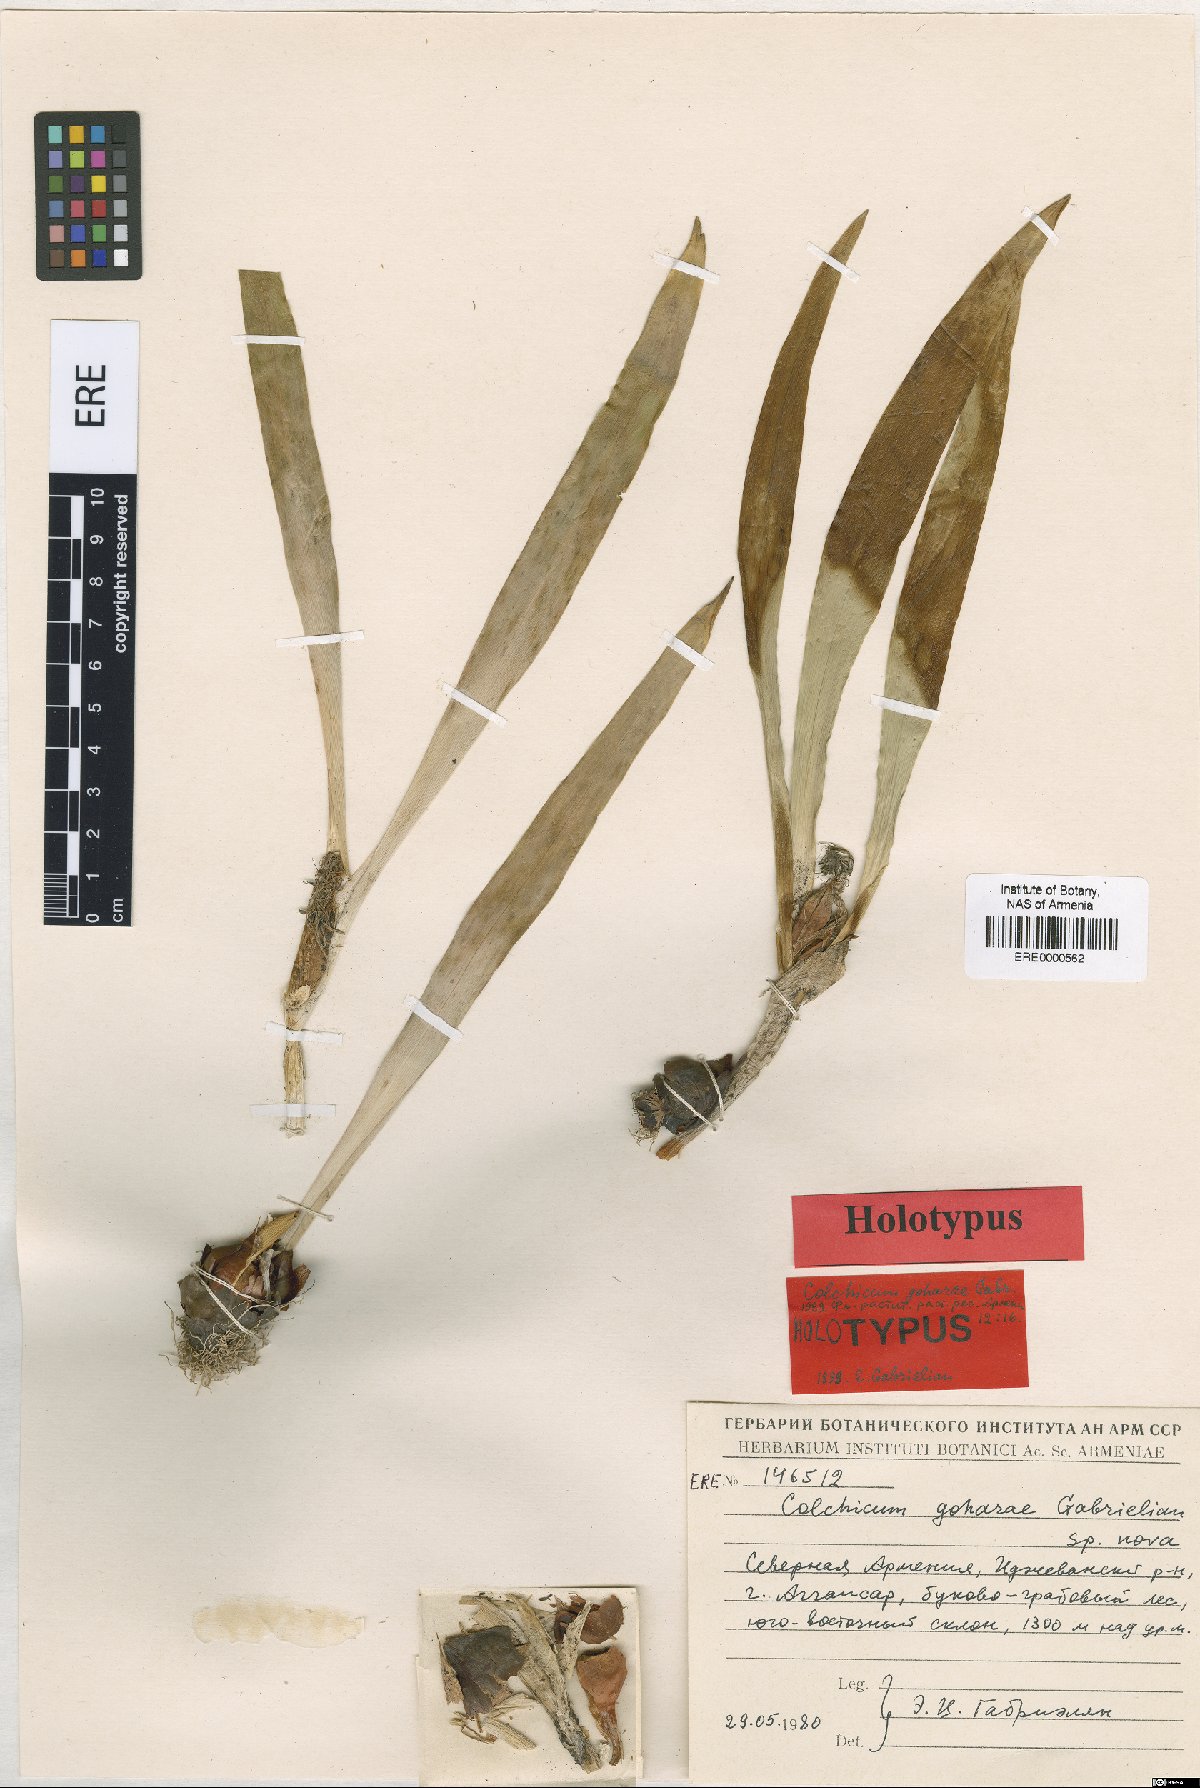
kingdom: Plantae
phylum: Tracheophyta
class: Liliopsida
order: Liliales
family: Colchicaceae
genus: Colchicum
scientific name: Colchicum szovitsii
